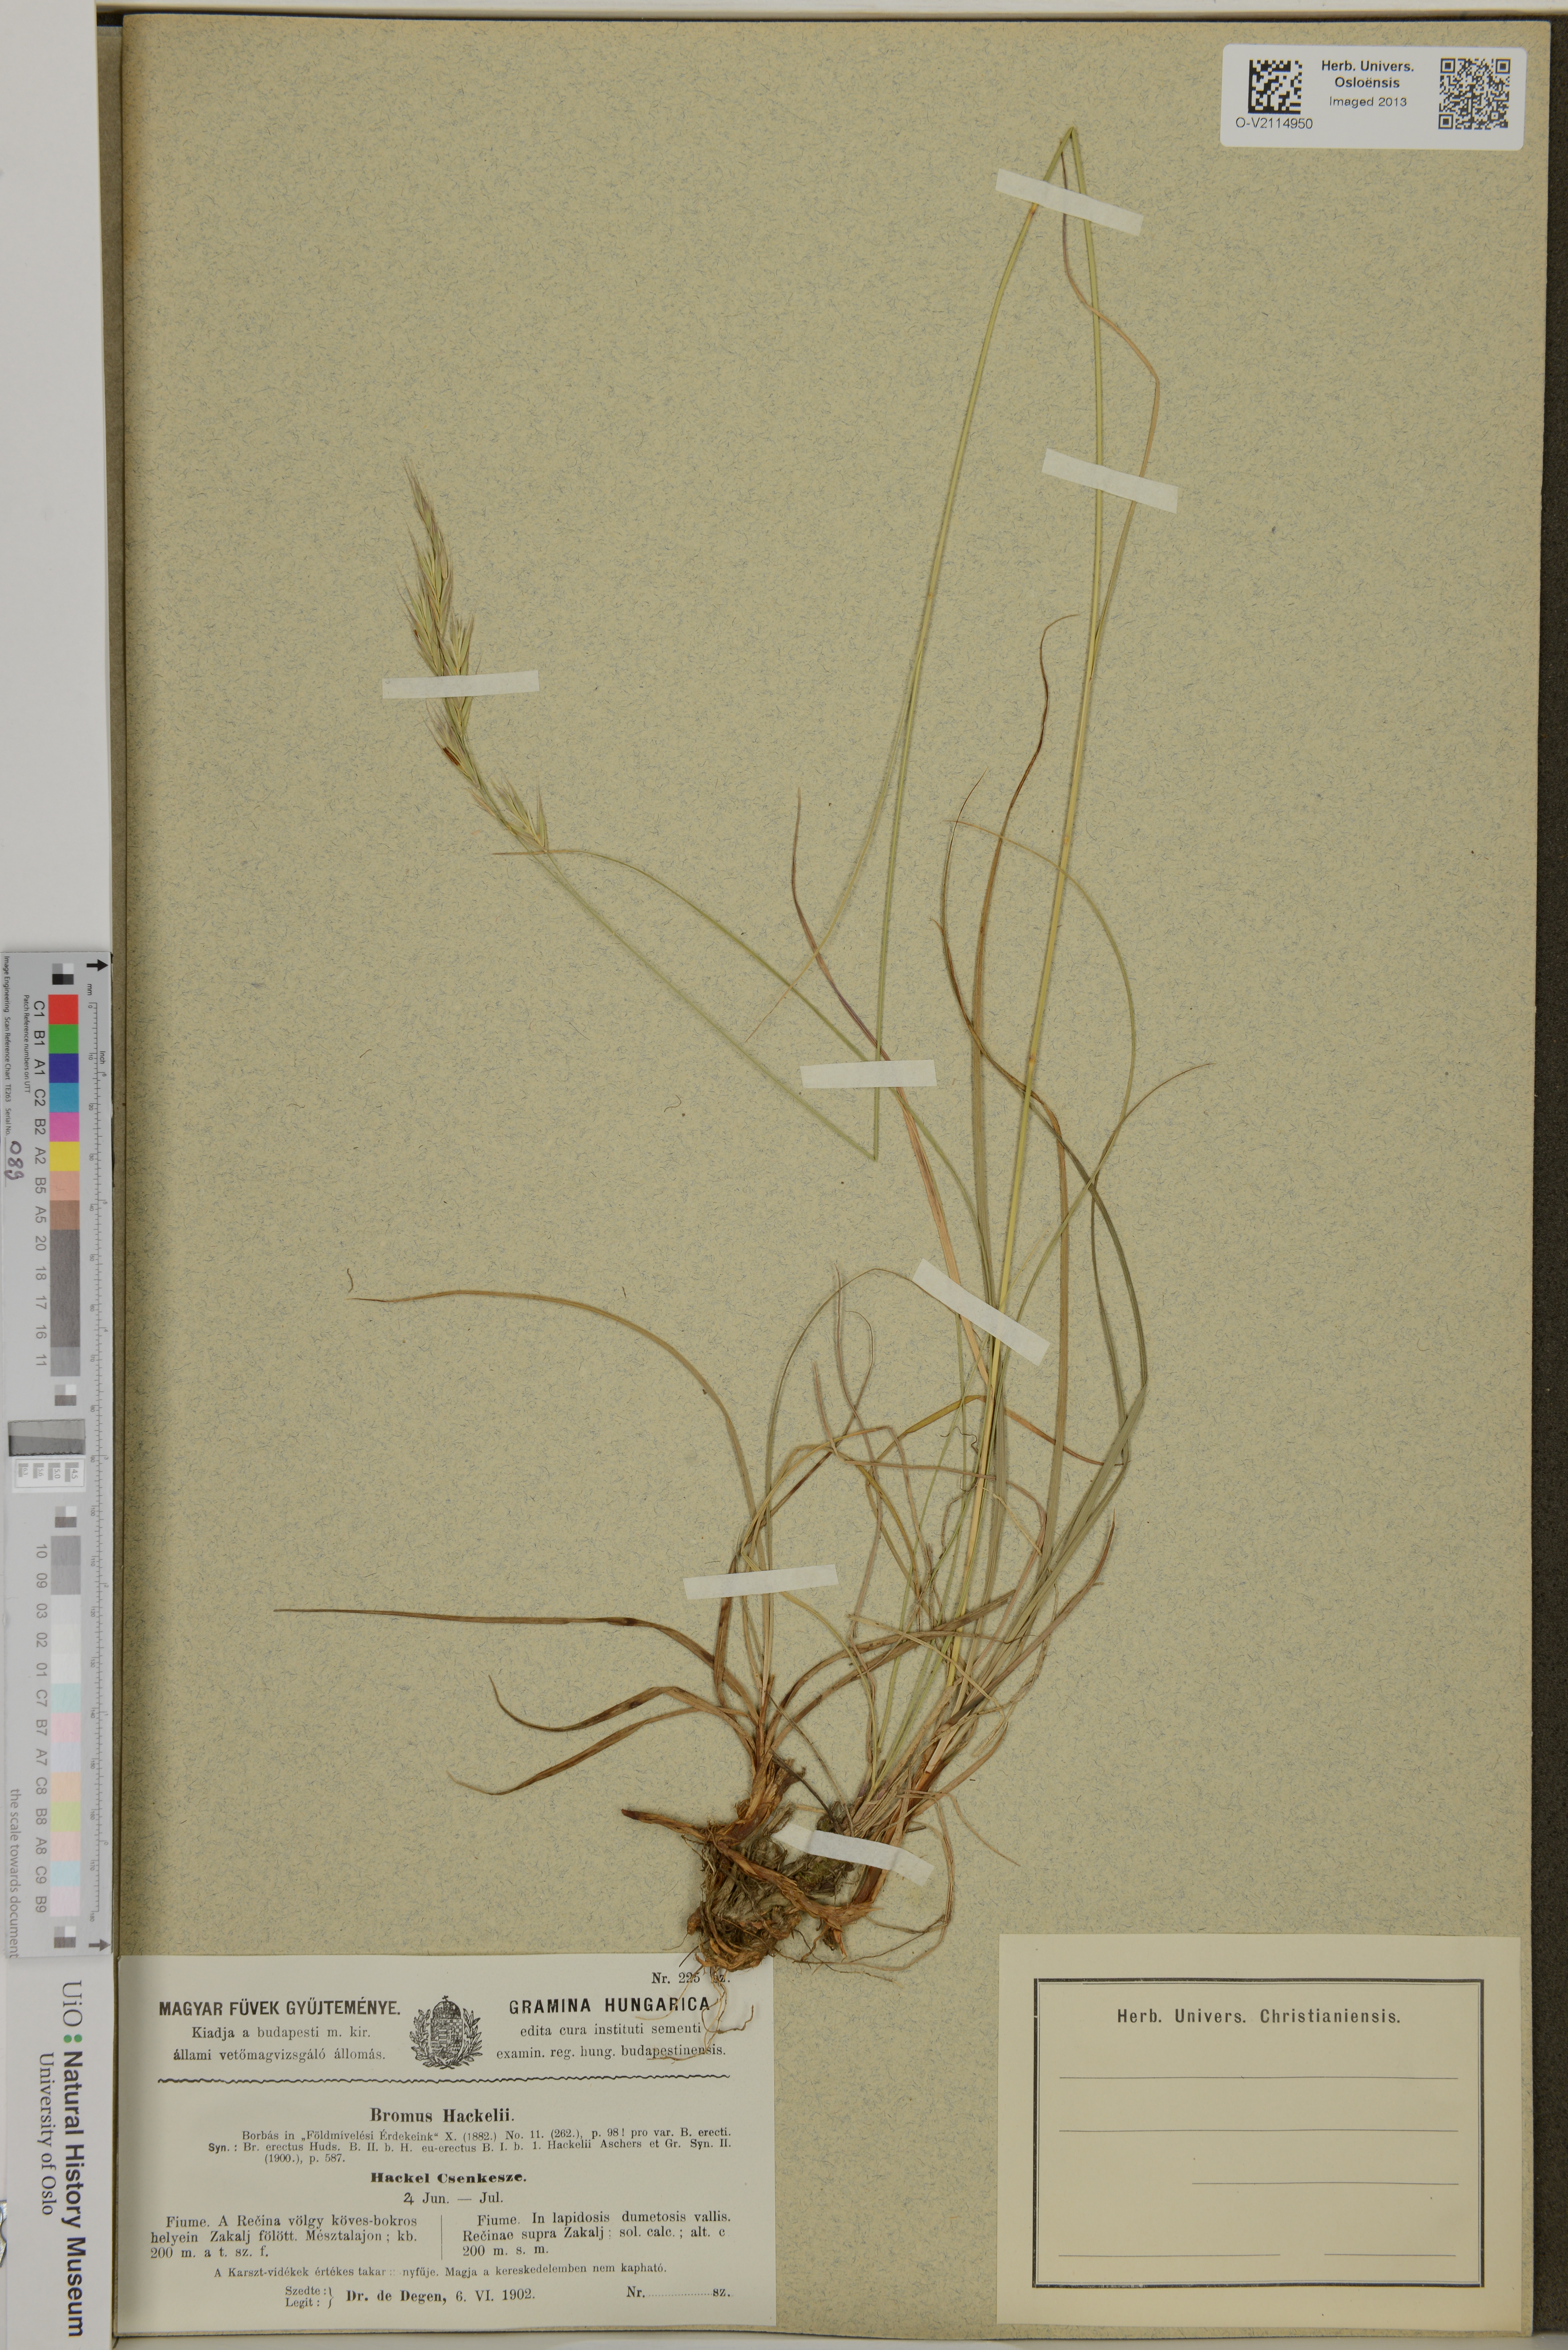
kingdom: Plantae
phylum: Tracheophyta
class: Liliopsida
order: Poales
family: Poaceae
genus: Bromus
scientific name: Bromus
